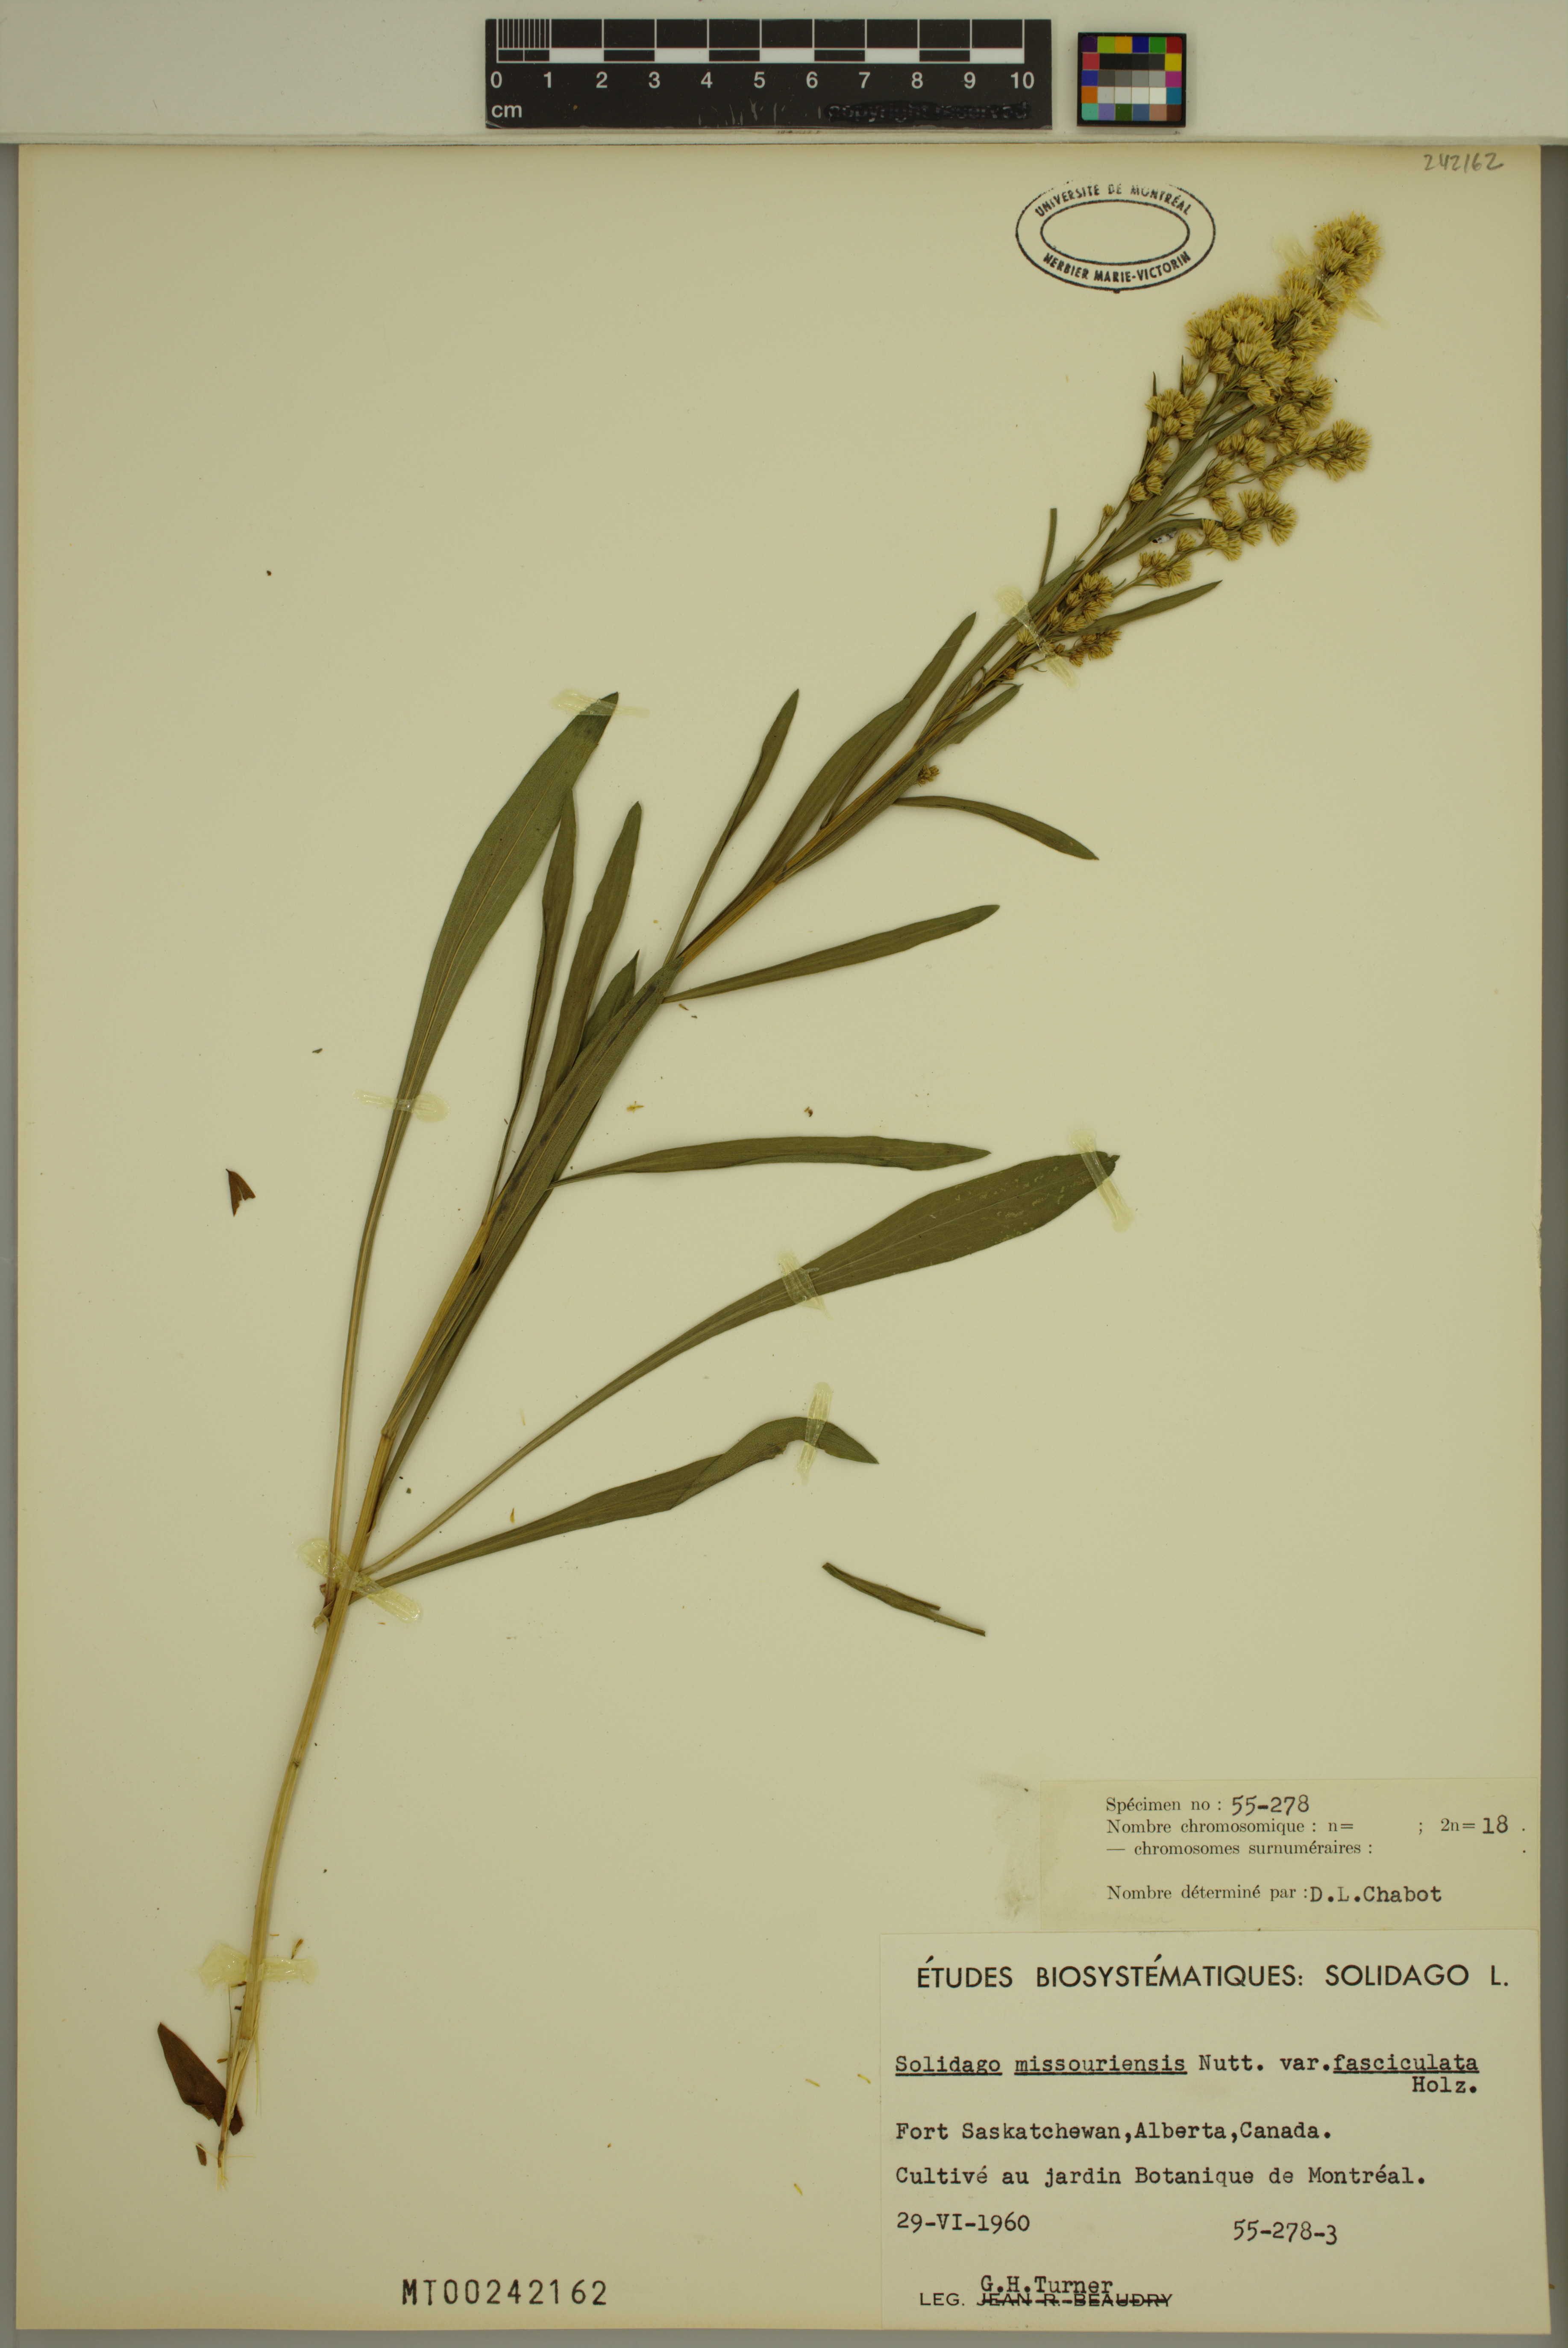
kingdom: Plantae
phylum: Tracheophyta
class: Magnoliopsida
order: Asterales
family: Asteraceae
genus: Solidago
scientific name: Solidago missouriensis
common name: Prairie goldenrod
